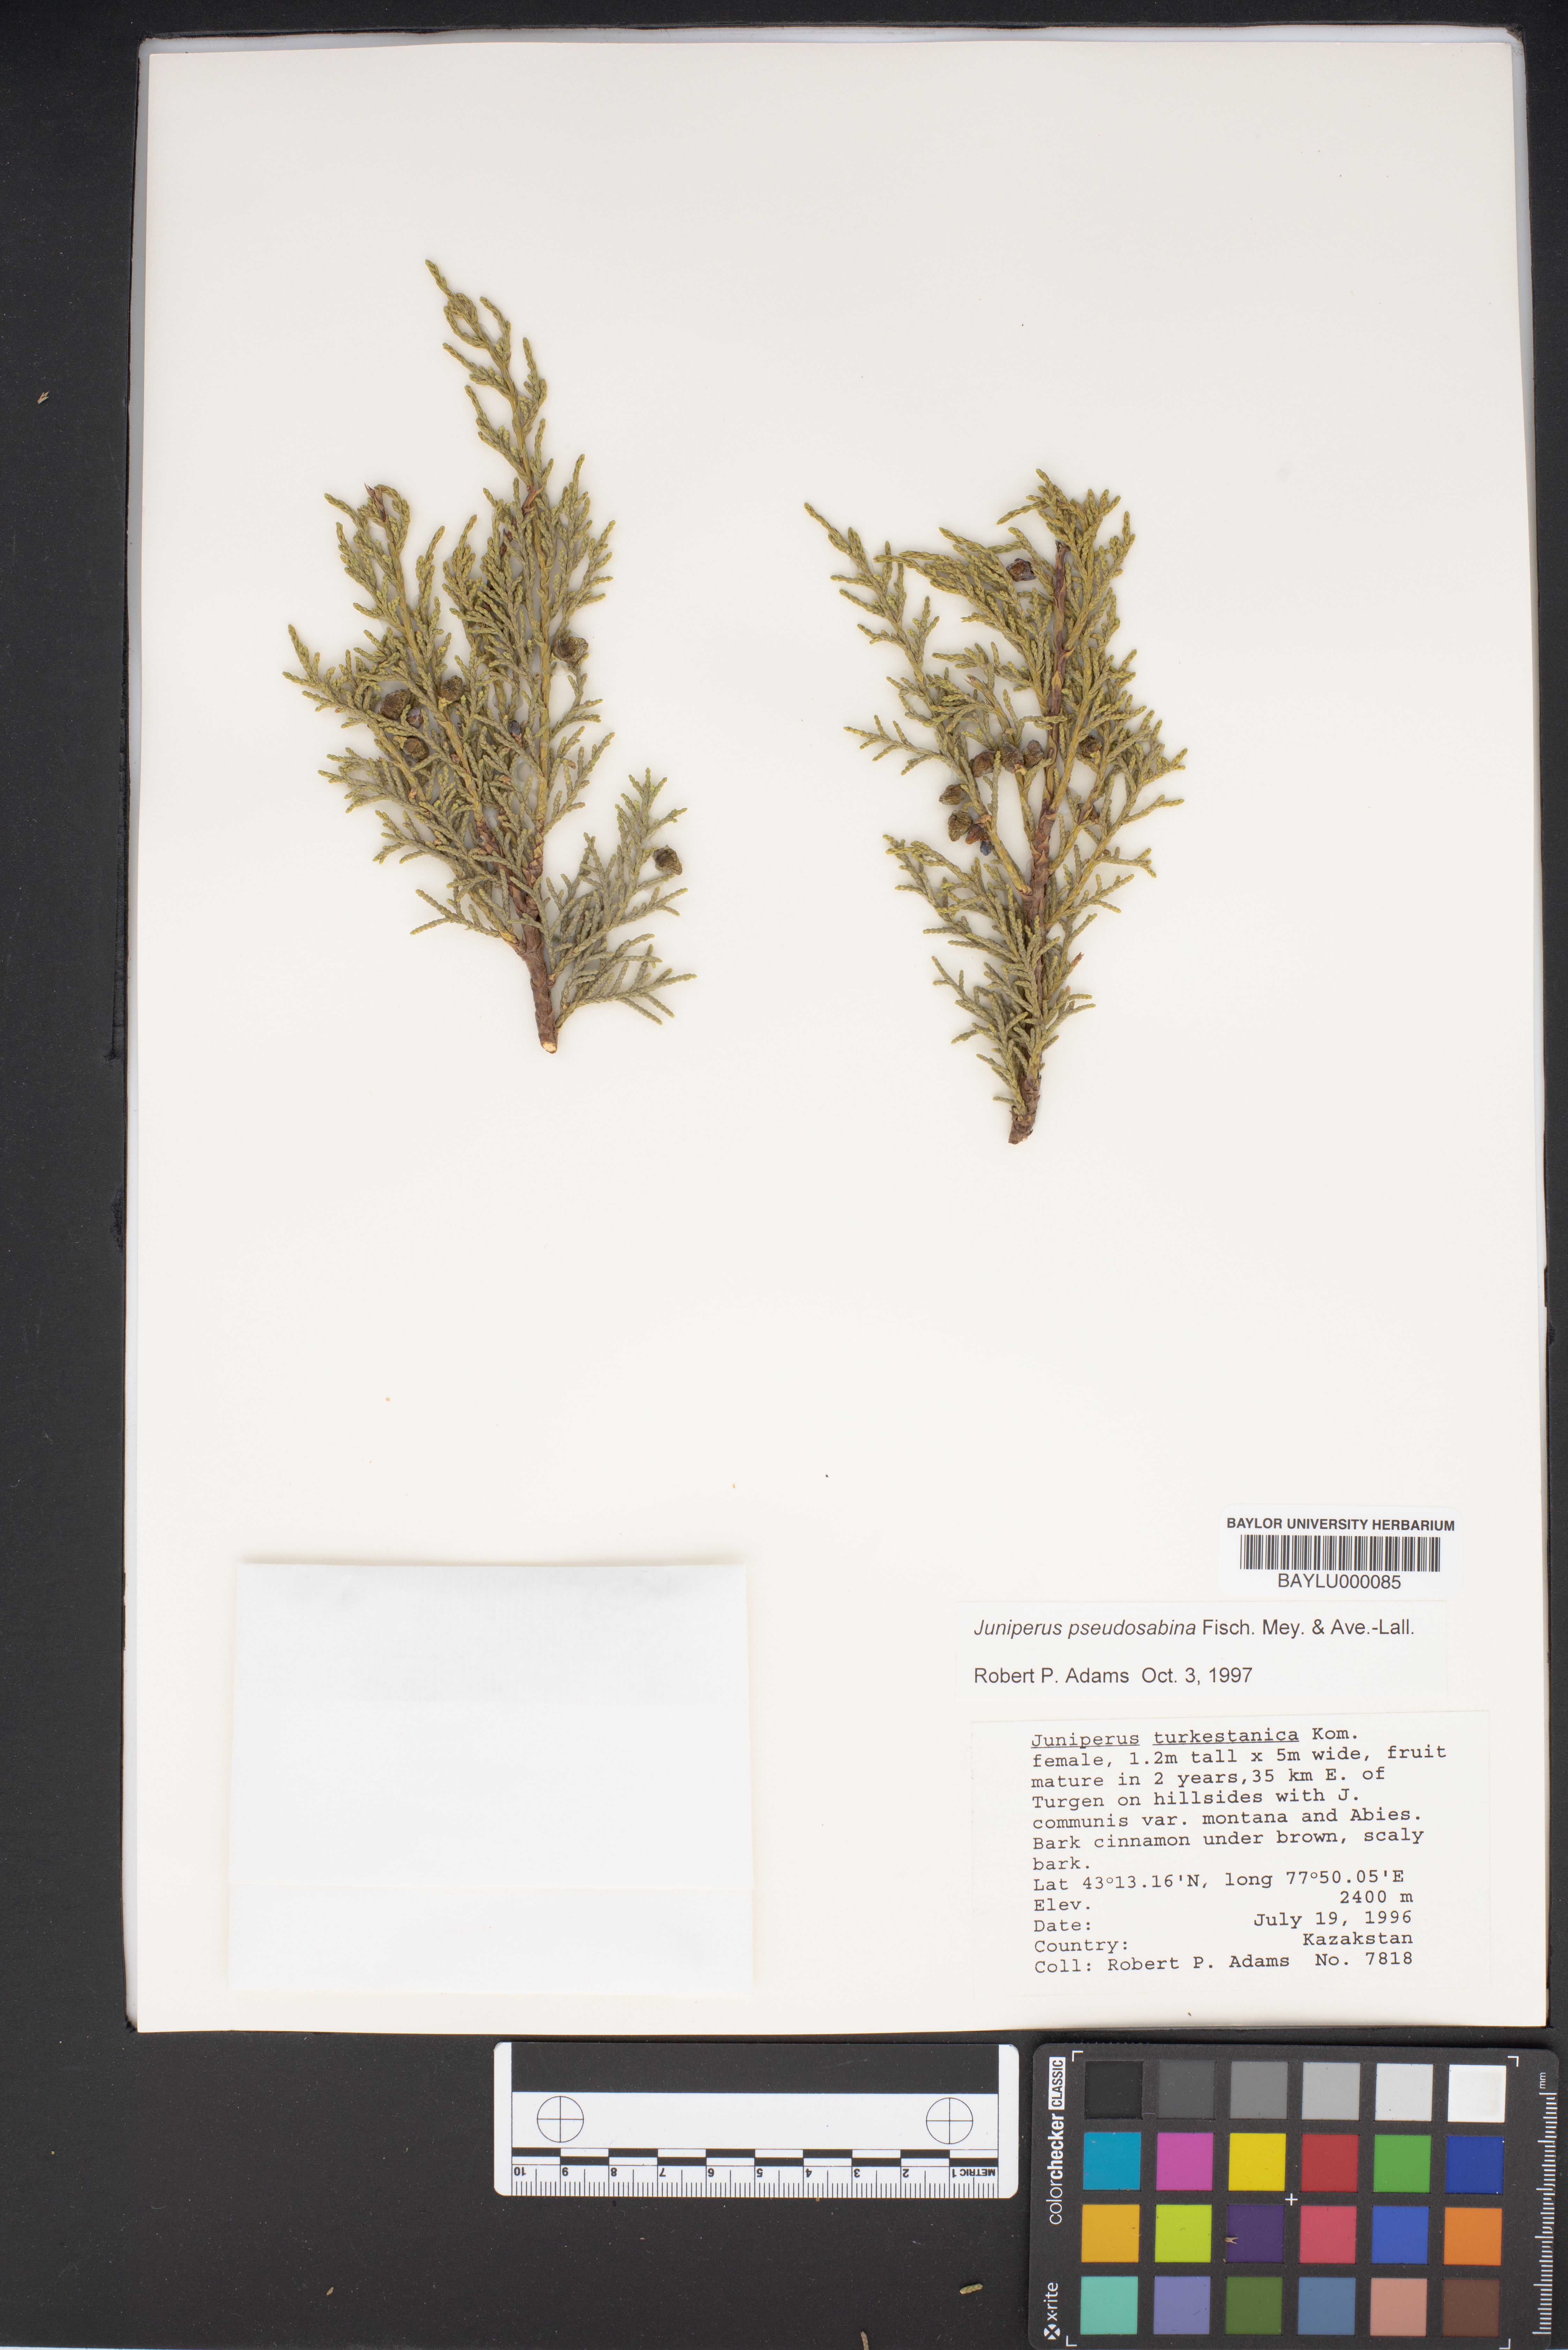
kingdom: Plantae
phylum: Tracheophyta
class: Pinopsida
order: Pinales
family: Cupressaceae
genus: Juniperus
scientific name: Juniperus pseudosabina
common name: Turkestan juniper
